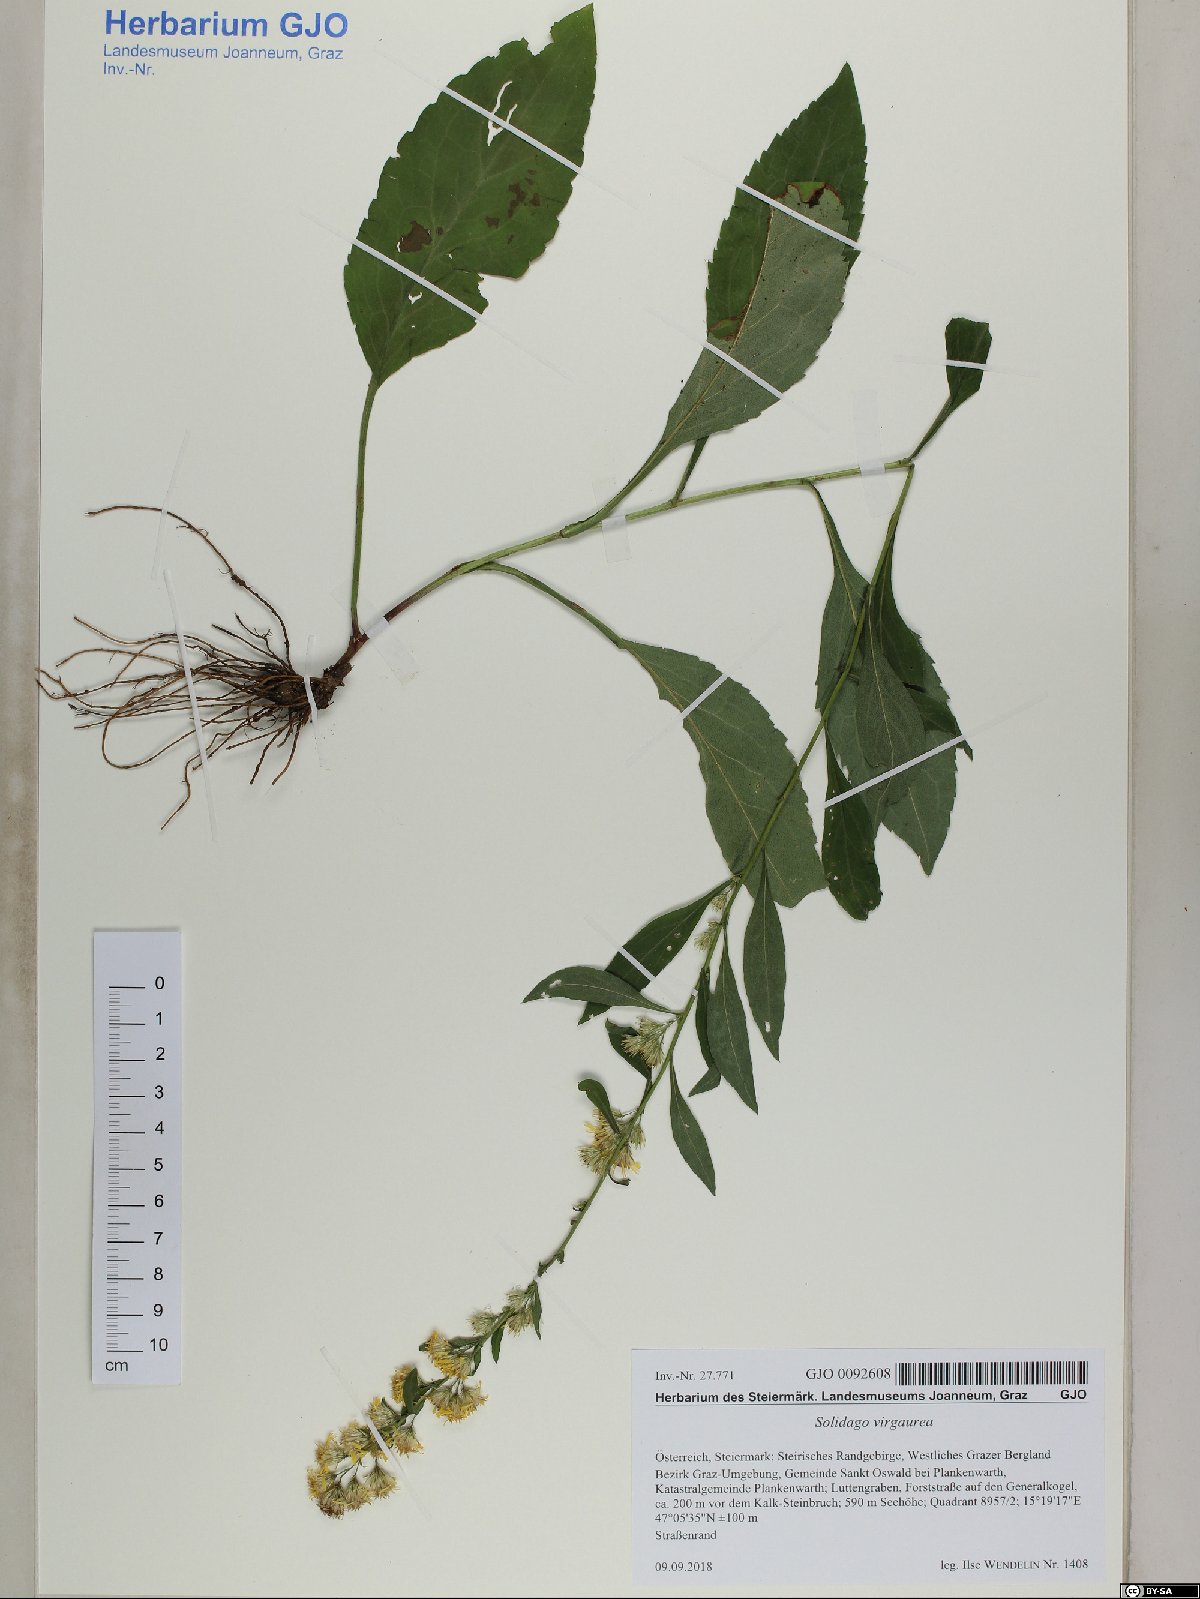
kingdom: Plantae
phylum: Tracheophyta
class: Magnoliopsida
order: Asterales
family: Asteraceae
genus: Solidago
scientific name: Solidago virgaurea
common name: Goldenrod
